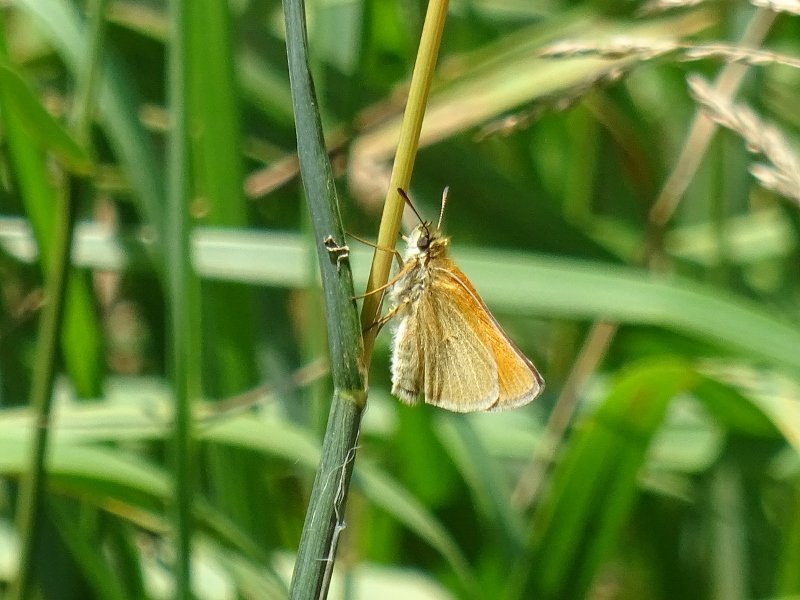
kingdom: Animalia
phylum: Arthropoda
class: Insecta
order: Lepidoptera
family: Hesperiidae
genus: Thymelicus
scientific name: Thymelicus lineola
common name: European Skipper
